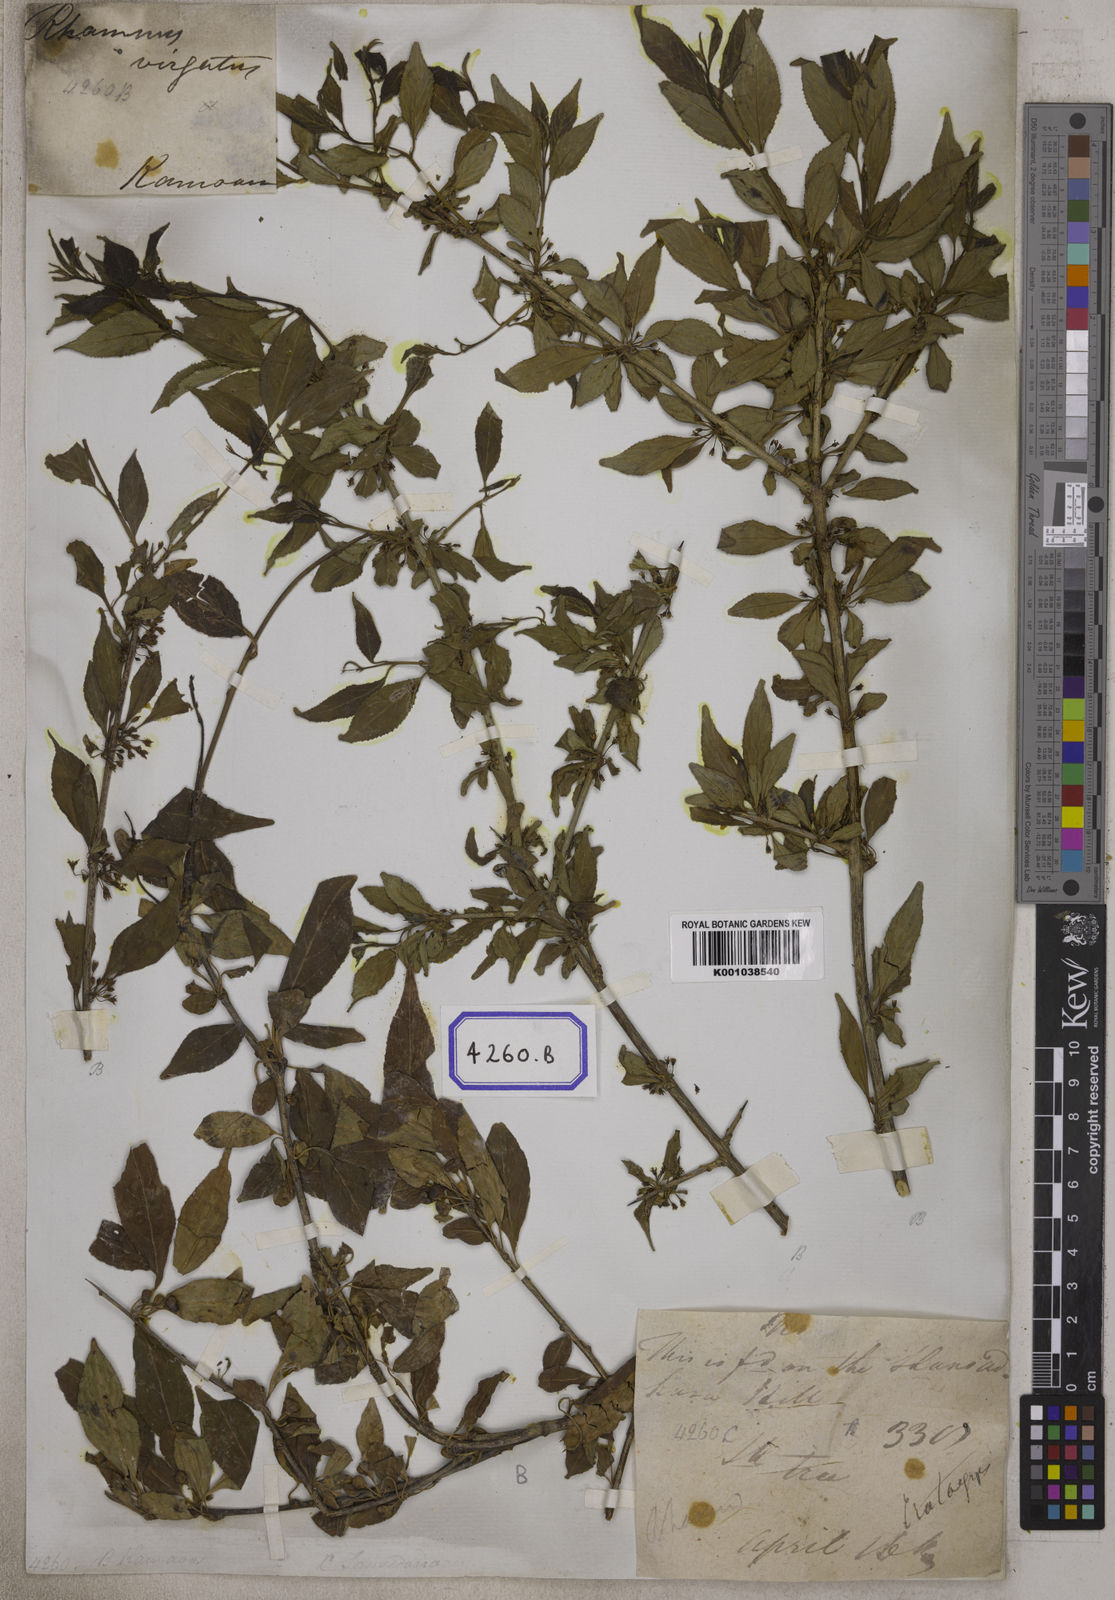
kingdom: Plantae
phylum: Tracheophyta
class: Magnoliopsida
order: Rosales
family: Rhamnaceae
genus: Rhamnus
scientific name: Rhamnus virgata
